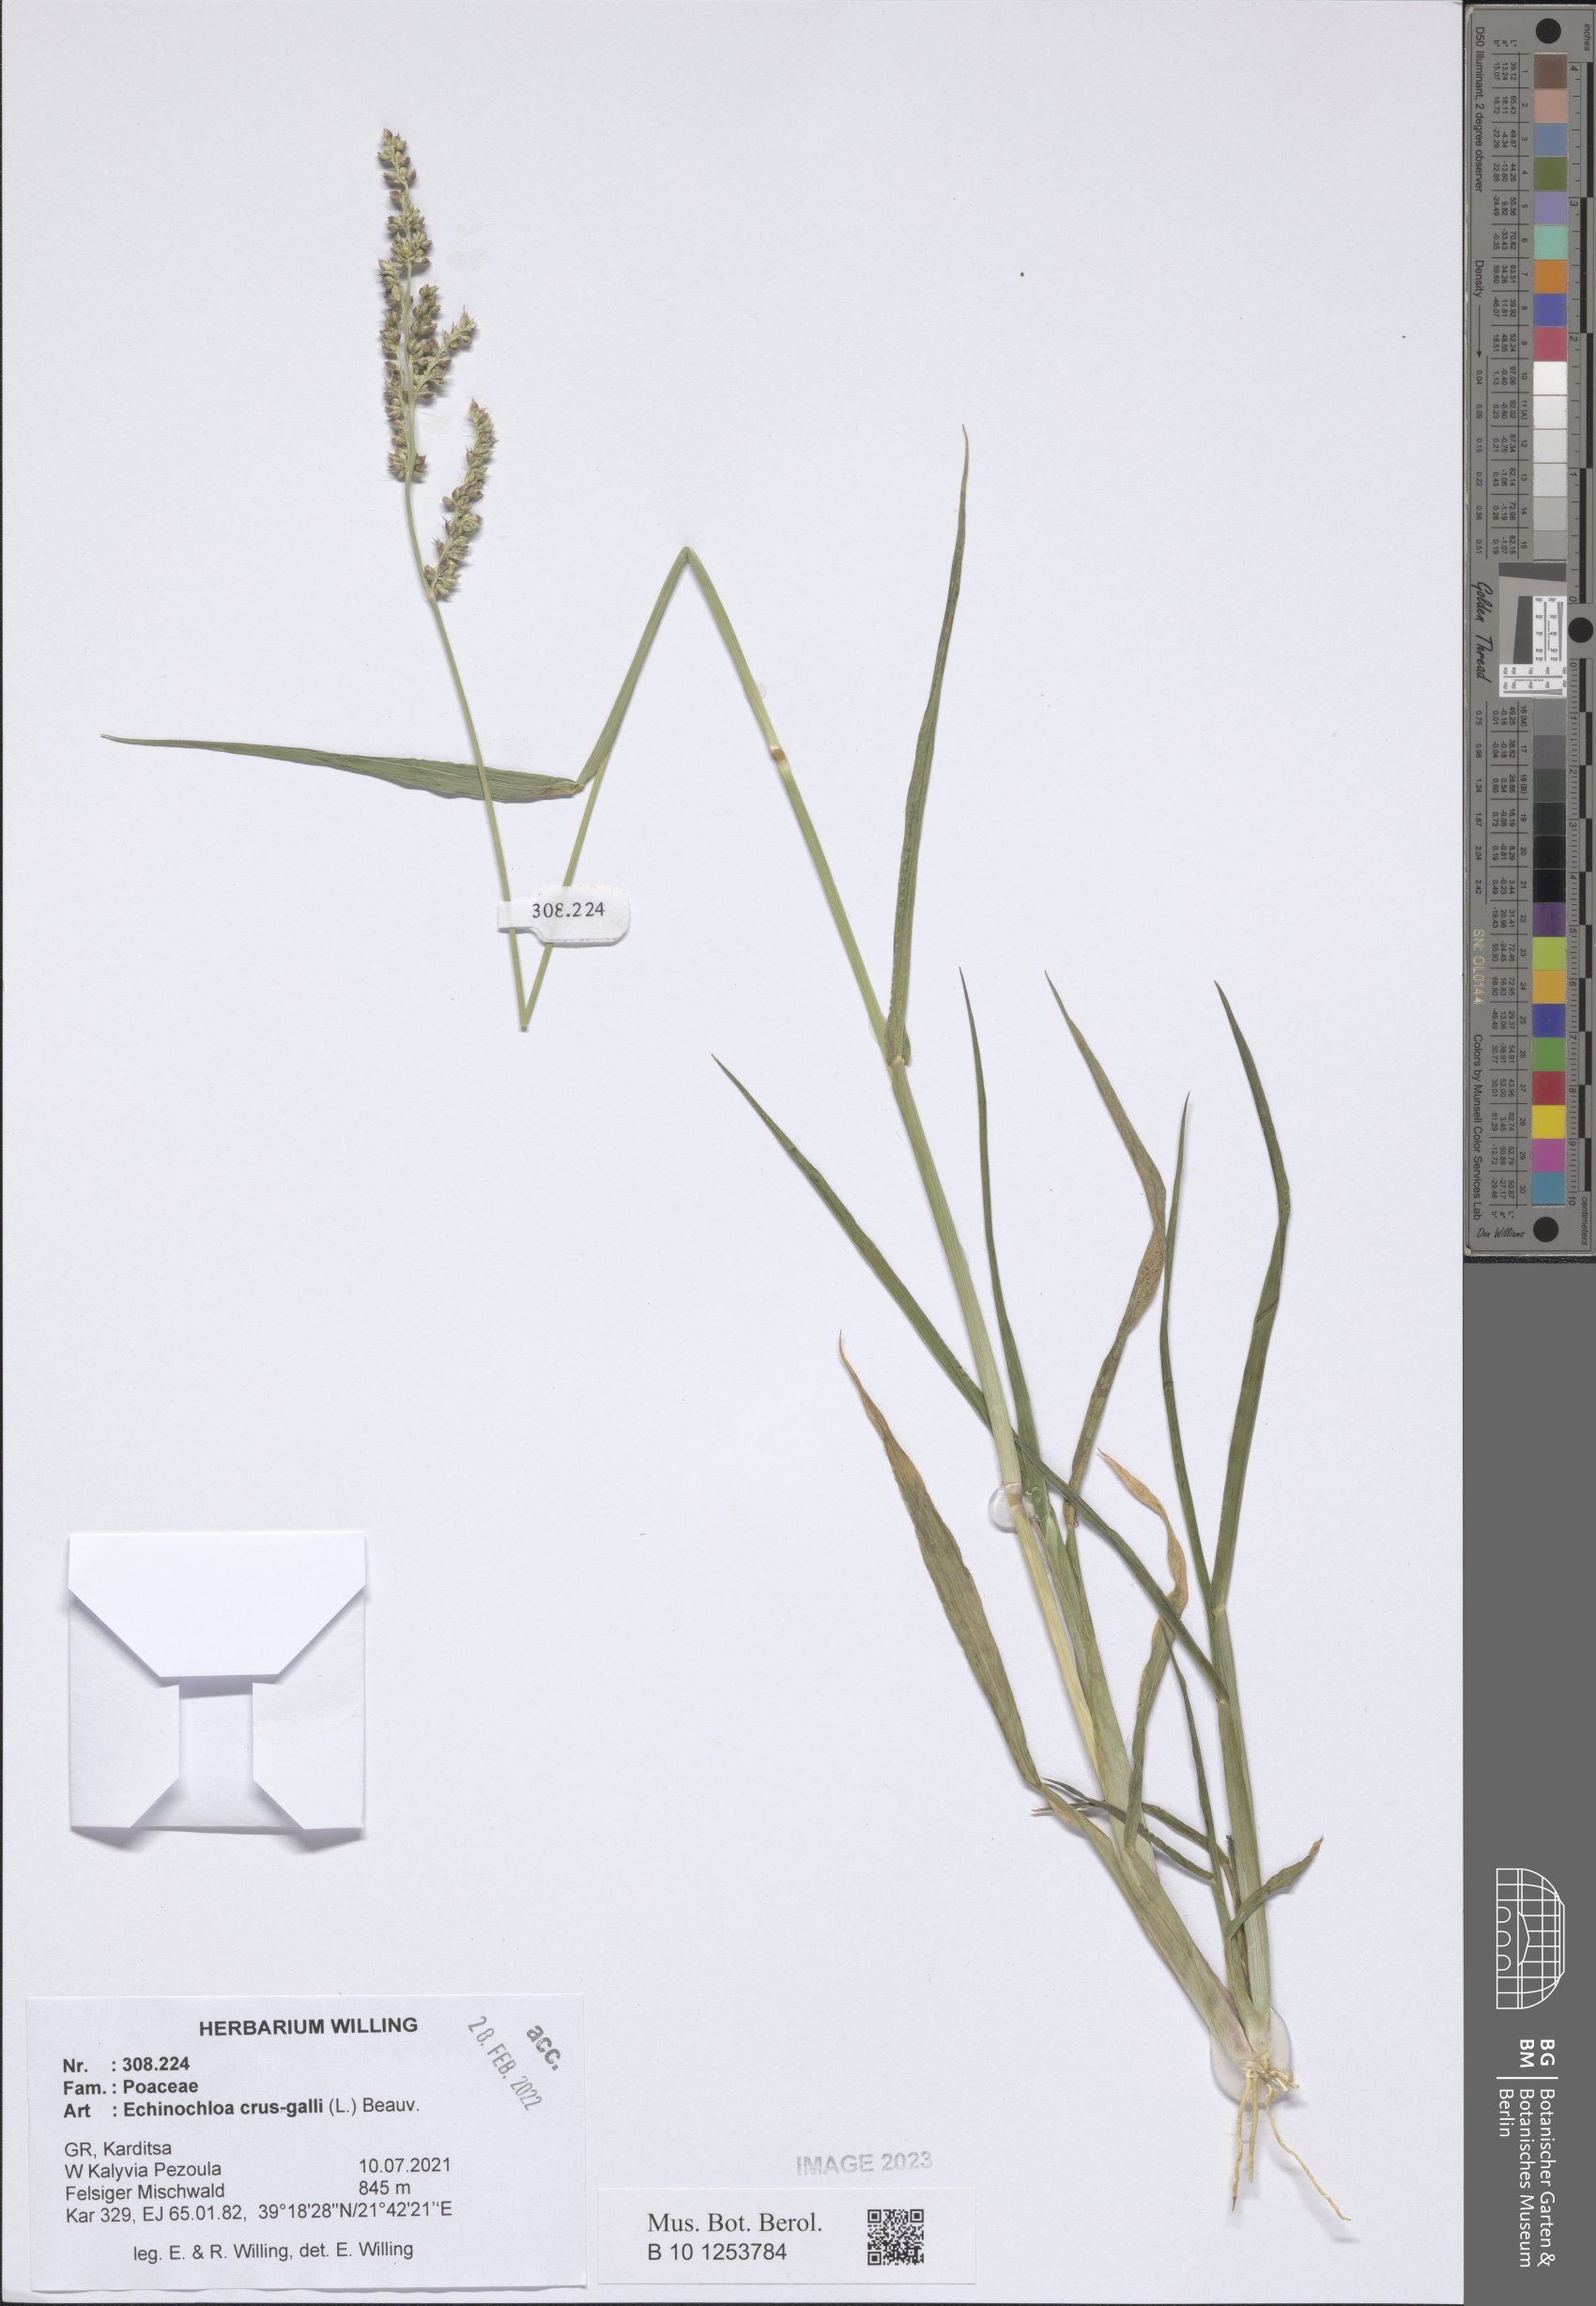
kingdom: Plantae
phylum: Tracheophyta
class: Liliopsida
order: Poales
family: Poaceae
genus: Echinochloa
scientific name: Echinochloa crus-galli
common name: Cockspur
